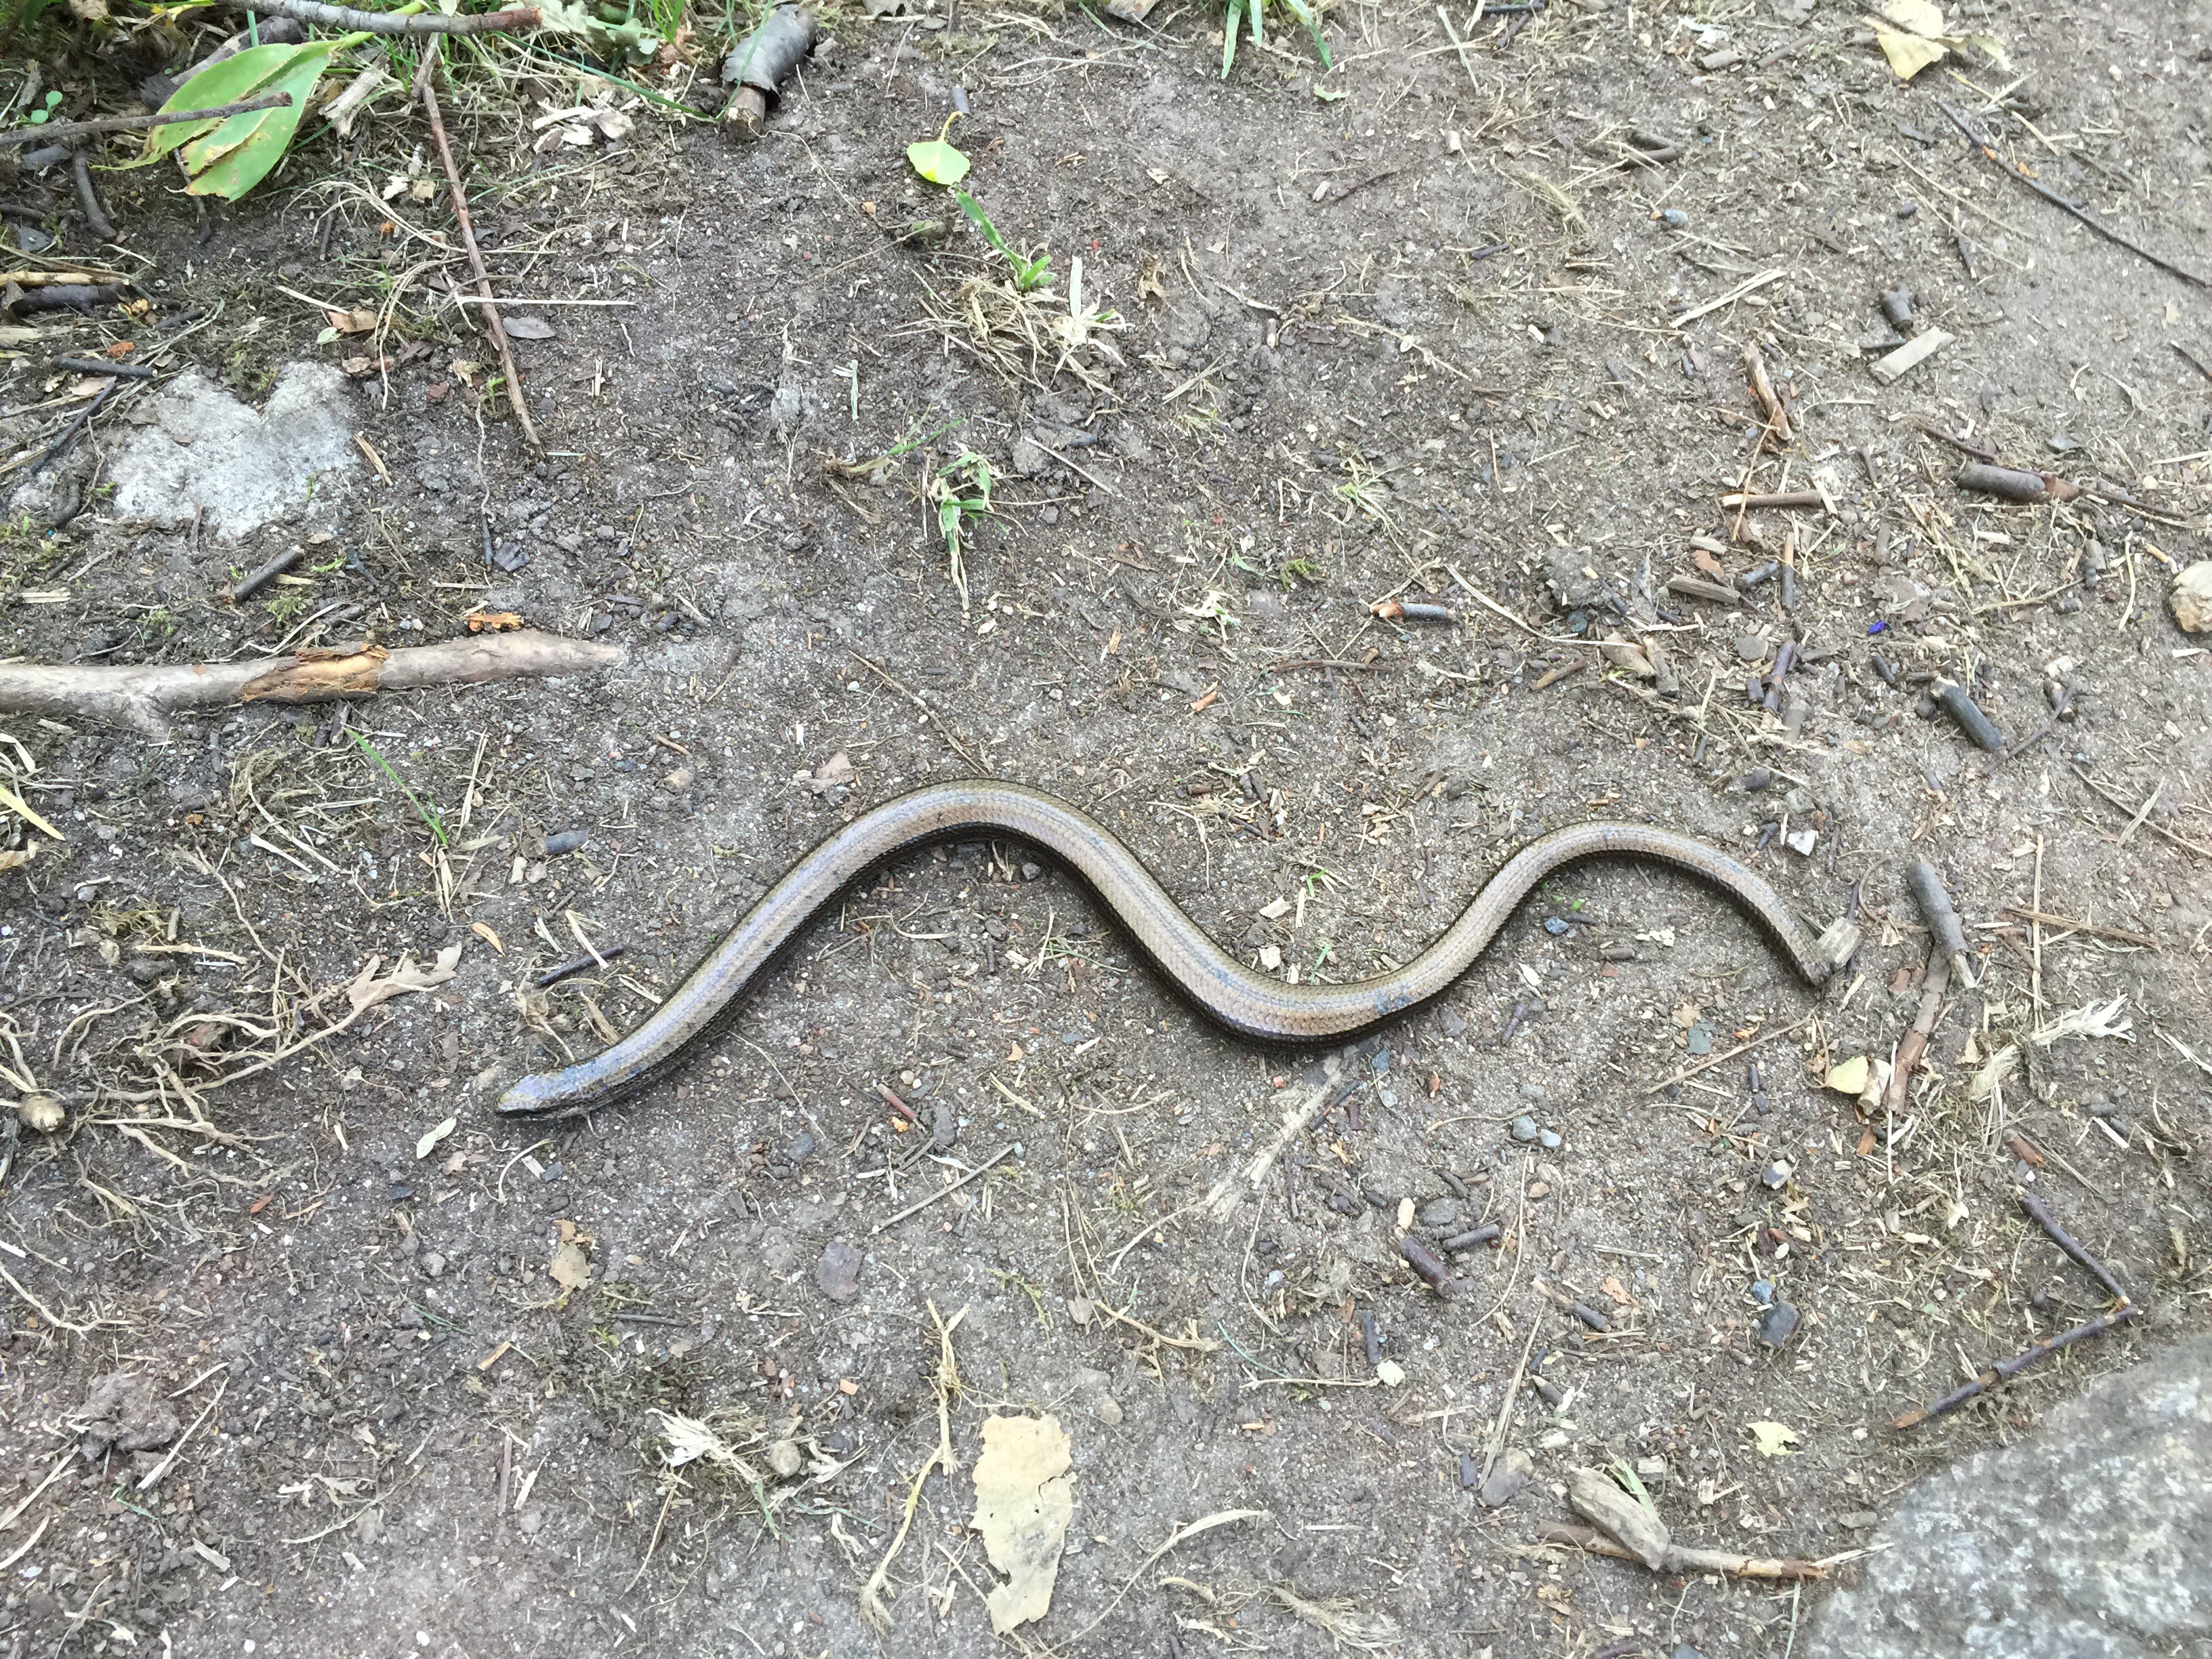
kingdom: Animalia
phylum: Chordata
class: Squamata
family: Anguidae
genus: Anguis
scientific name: Anguis colchica
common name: Slow worm
